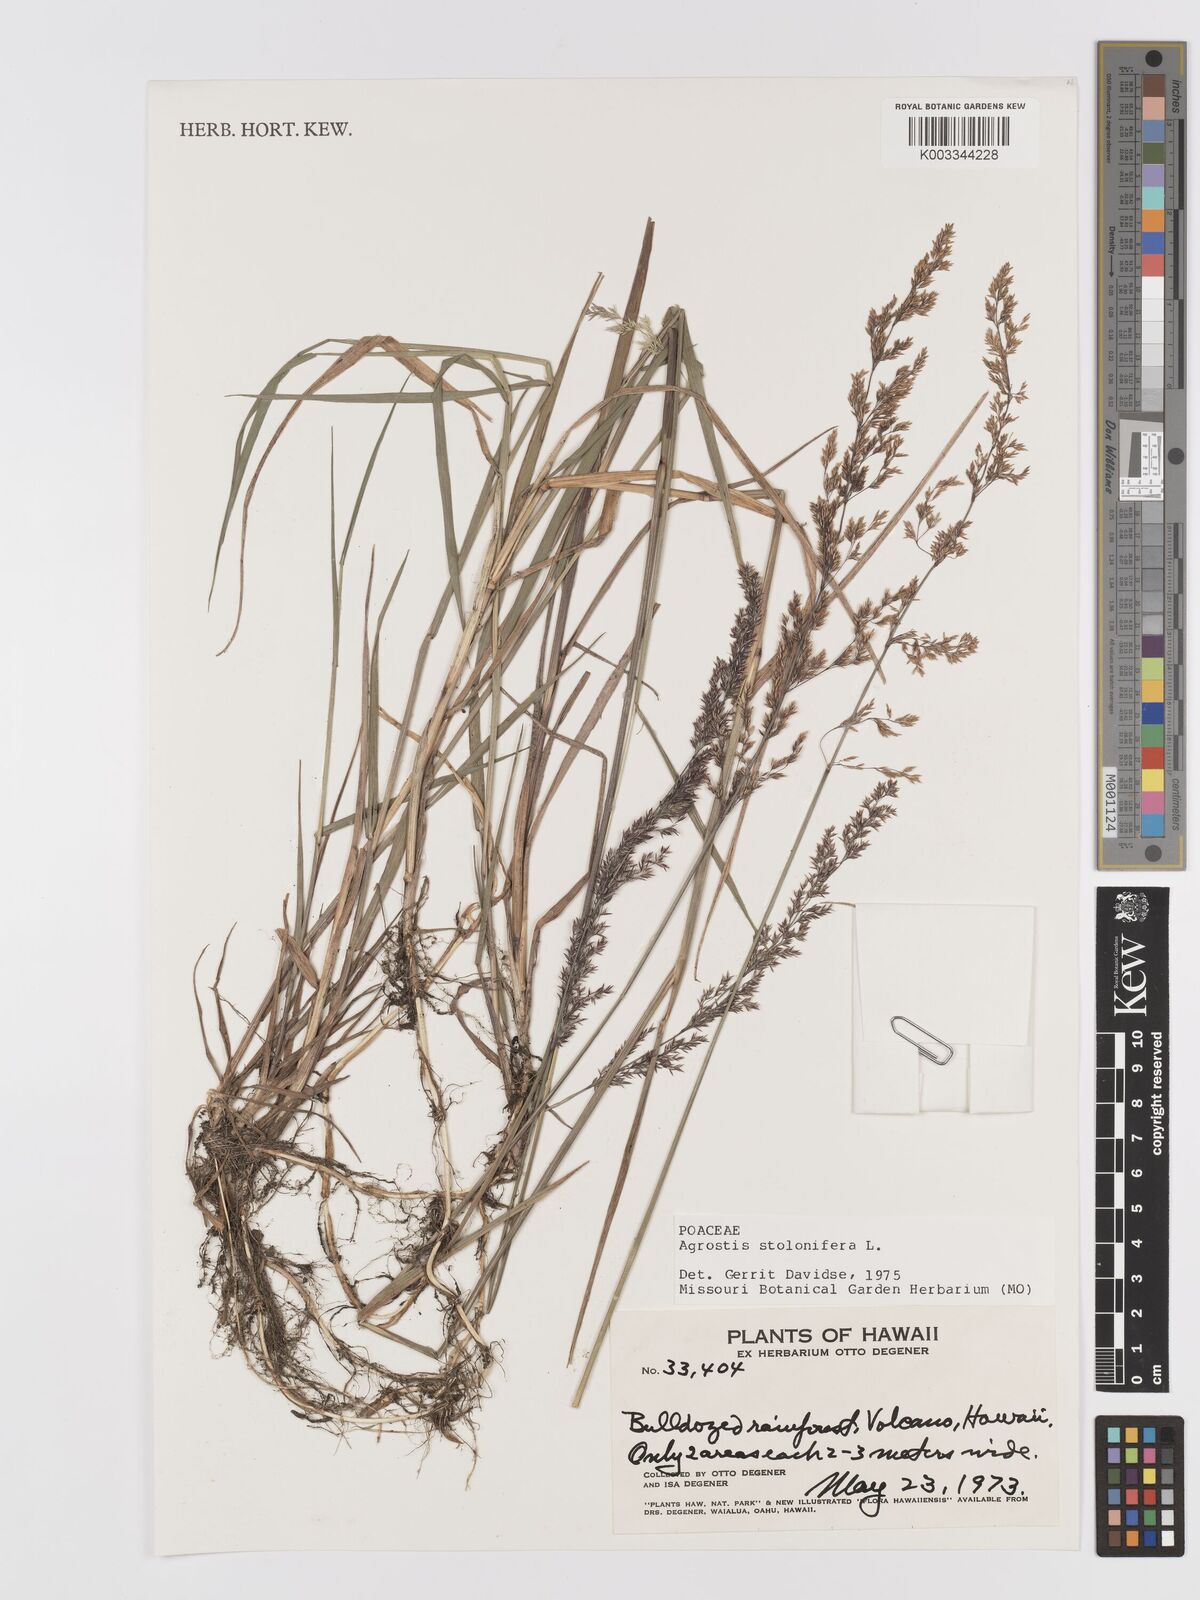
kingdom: Plantae
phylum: Tracheophyta
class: Liliopsida
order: Poales
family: Poaceae
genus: Agrostis
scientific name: Agrostis stolonifera
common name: Creeping bentgrass
